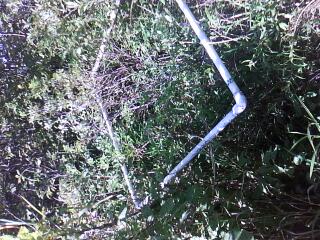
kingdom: Plantae
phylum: Tracheophyta
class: Magnoliopsida
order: Asterales
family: Asteraceae
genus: Symphyotrichum
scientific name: Symphyotrichum lanceolatum
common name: Panicled aster
